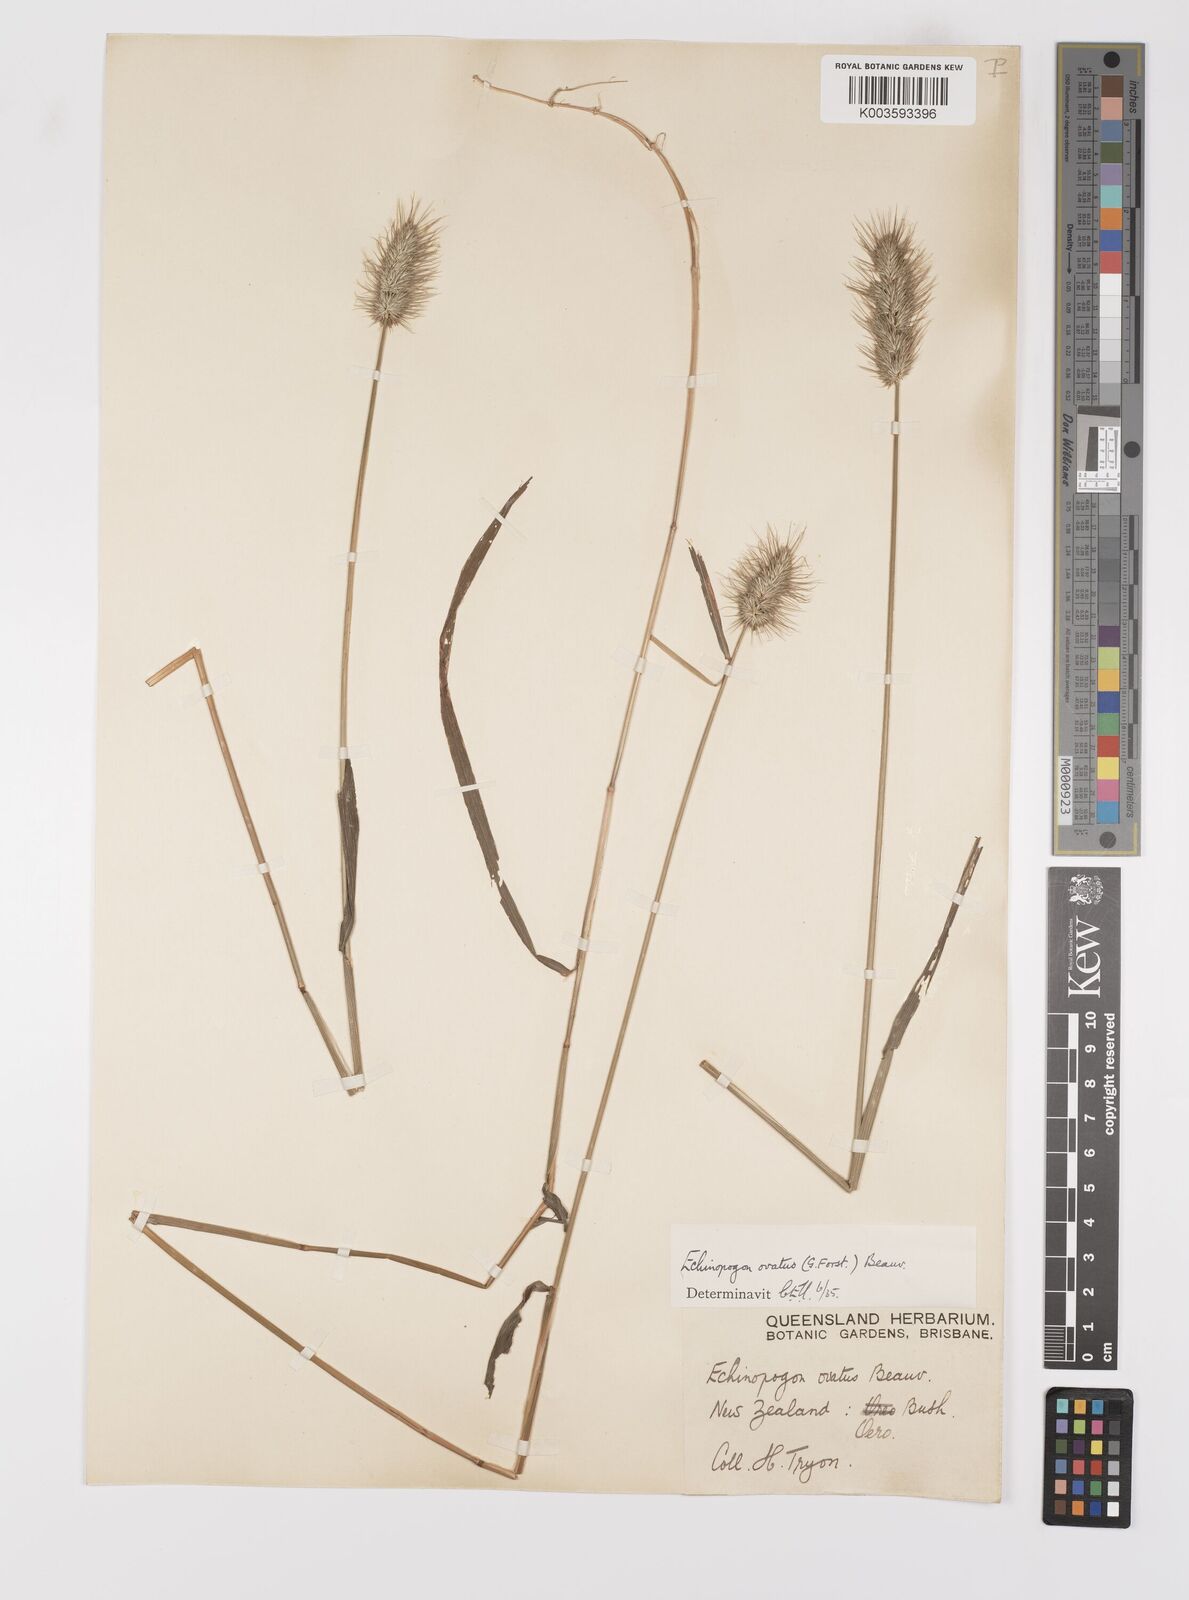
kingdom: Plantae
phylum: Tracheophyta
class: Liliopsida
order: Poales
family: Poaceae
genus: Echinopogon
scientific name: Echinopogon ovatus
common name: Hedgehog-grass
